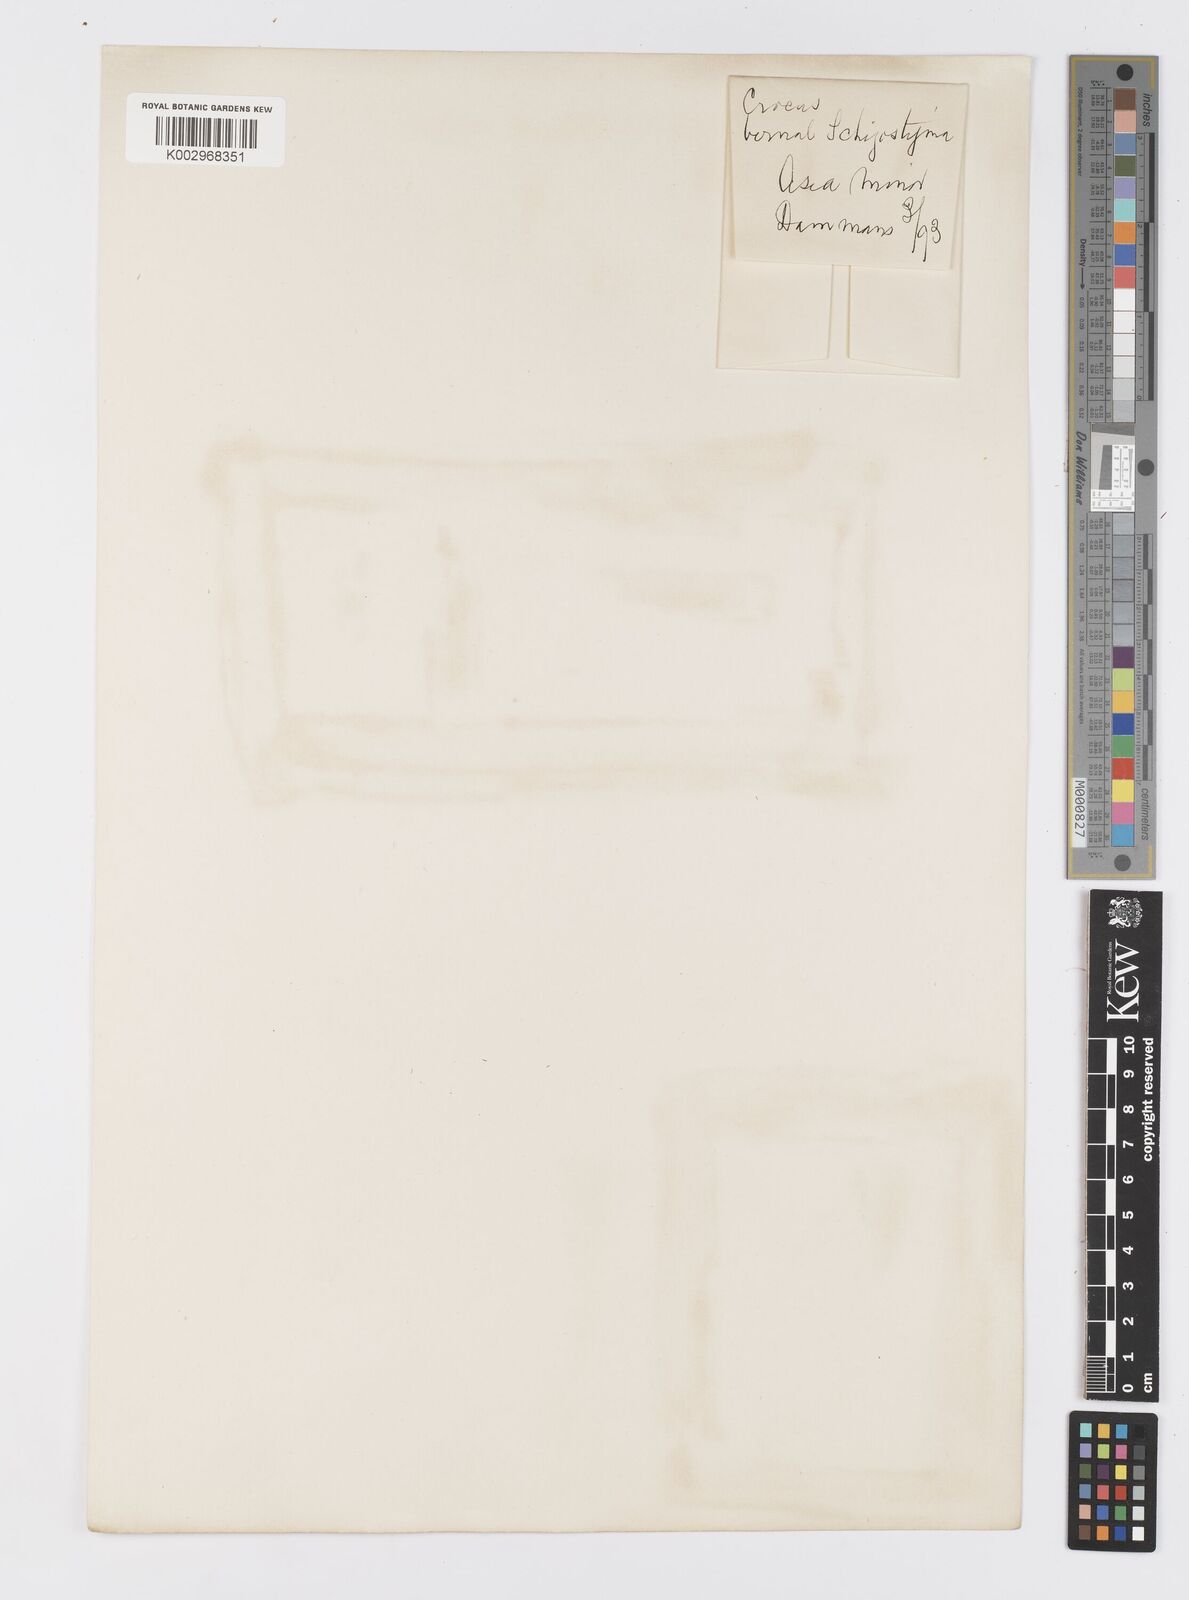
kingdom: Plantae
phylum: Tracheophyta
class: Liliopsida
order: Asparagales
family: Iridaceae
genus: Crocus
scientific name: Crocus
